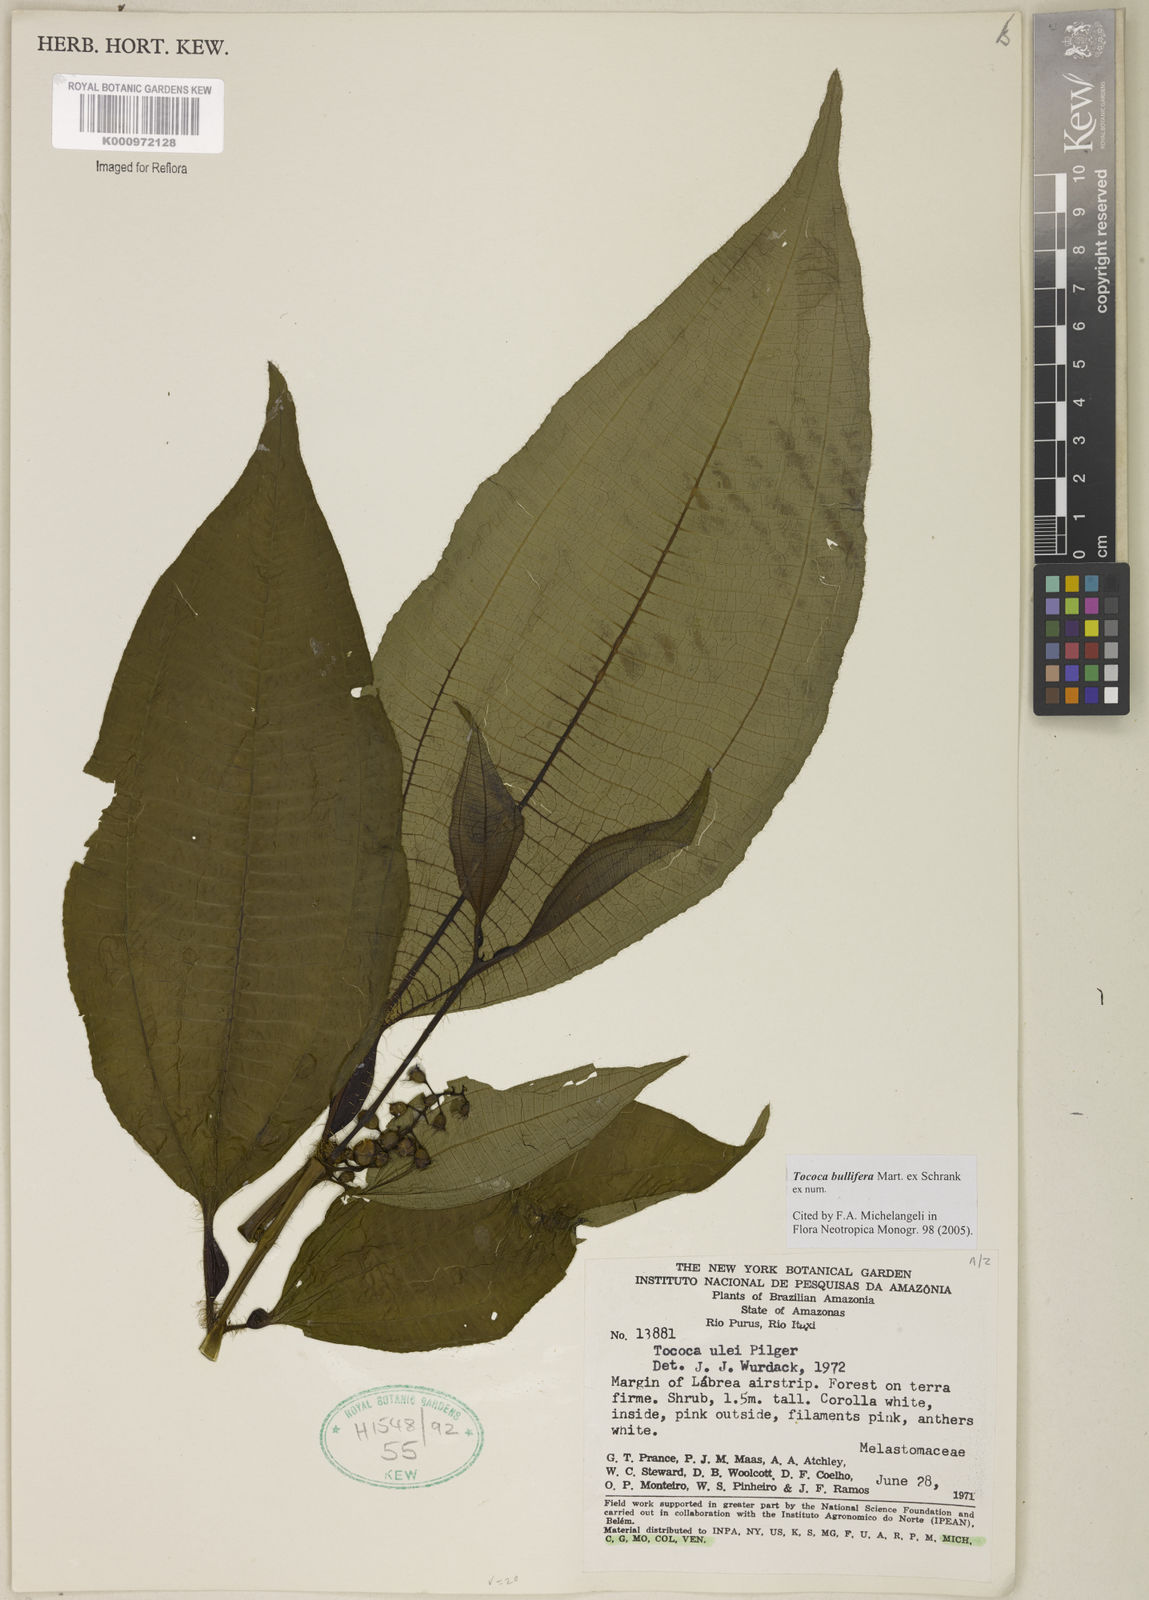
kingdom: Plantae
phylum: Tracheophyta
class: Magnoliopsida
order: Myrtales
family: Melastomataceae
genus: Miconia
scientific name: Miconia bullifera
